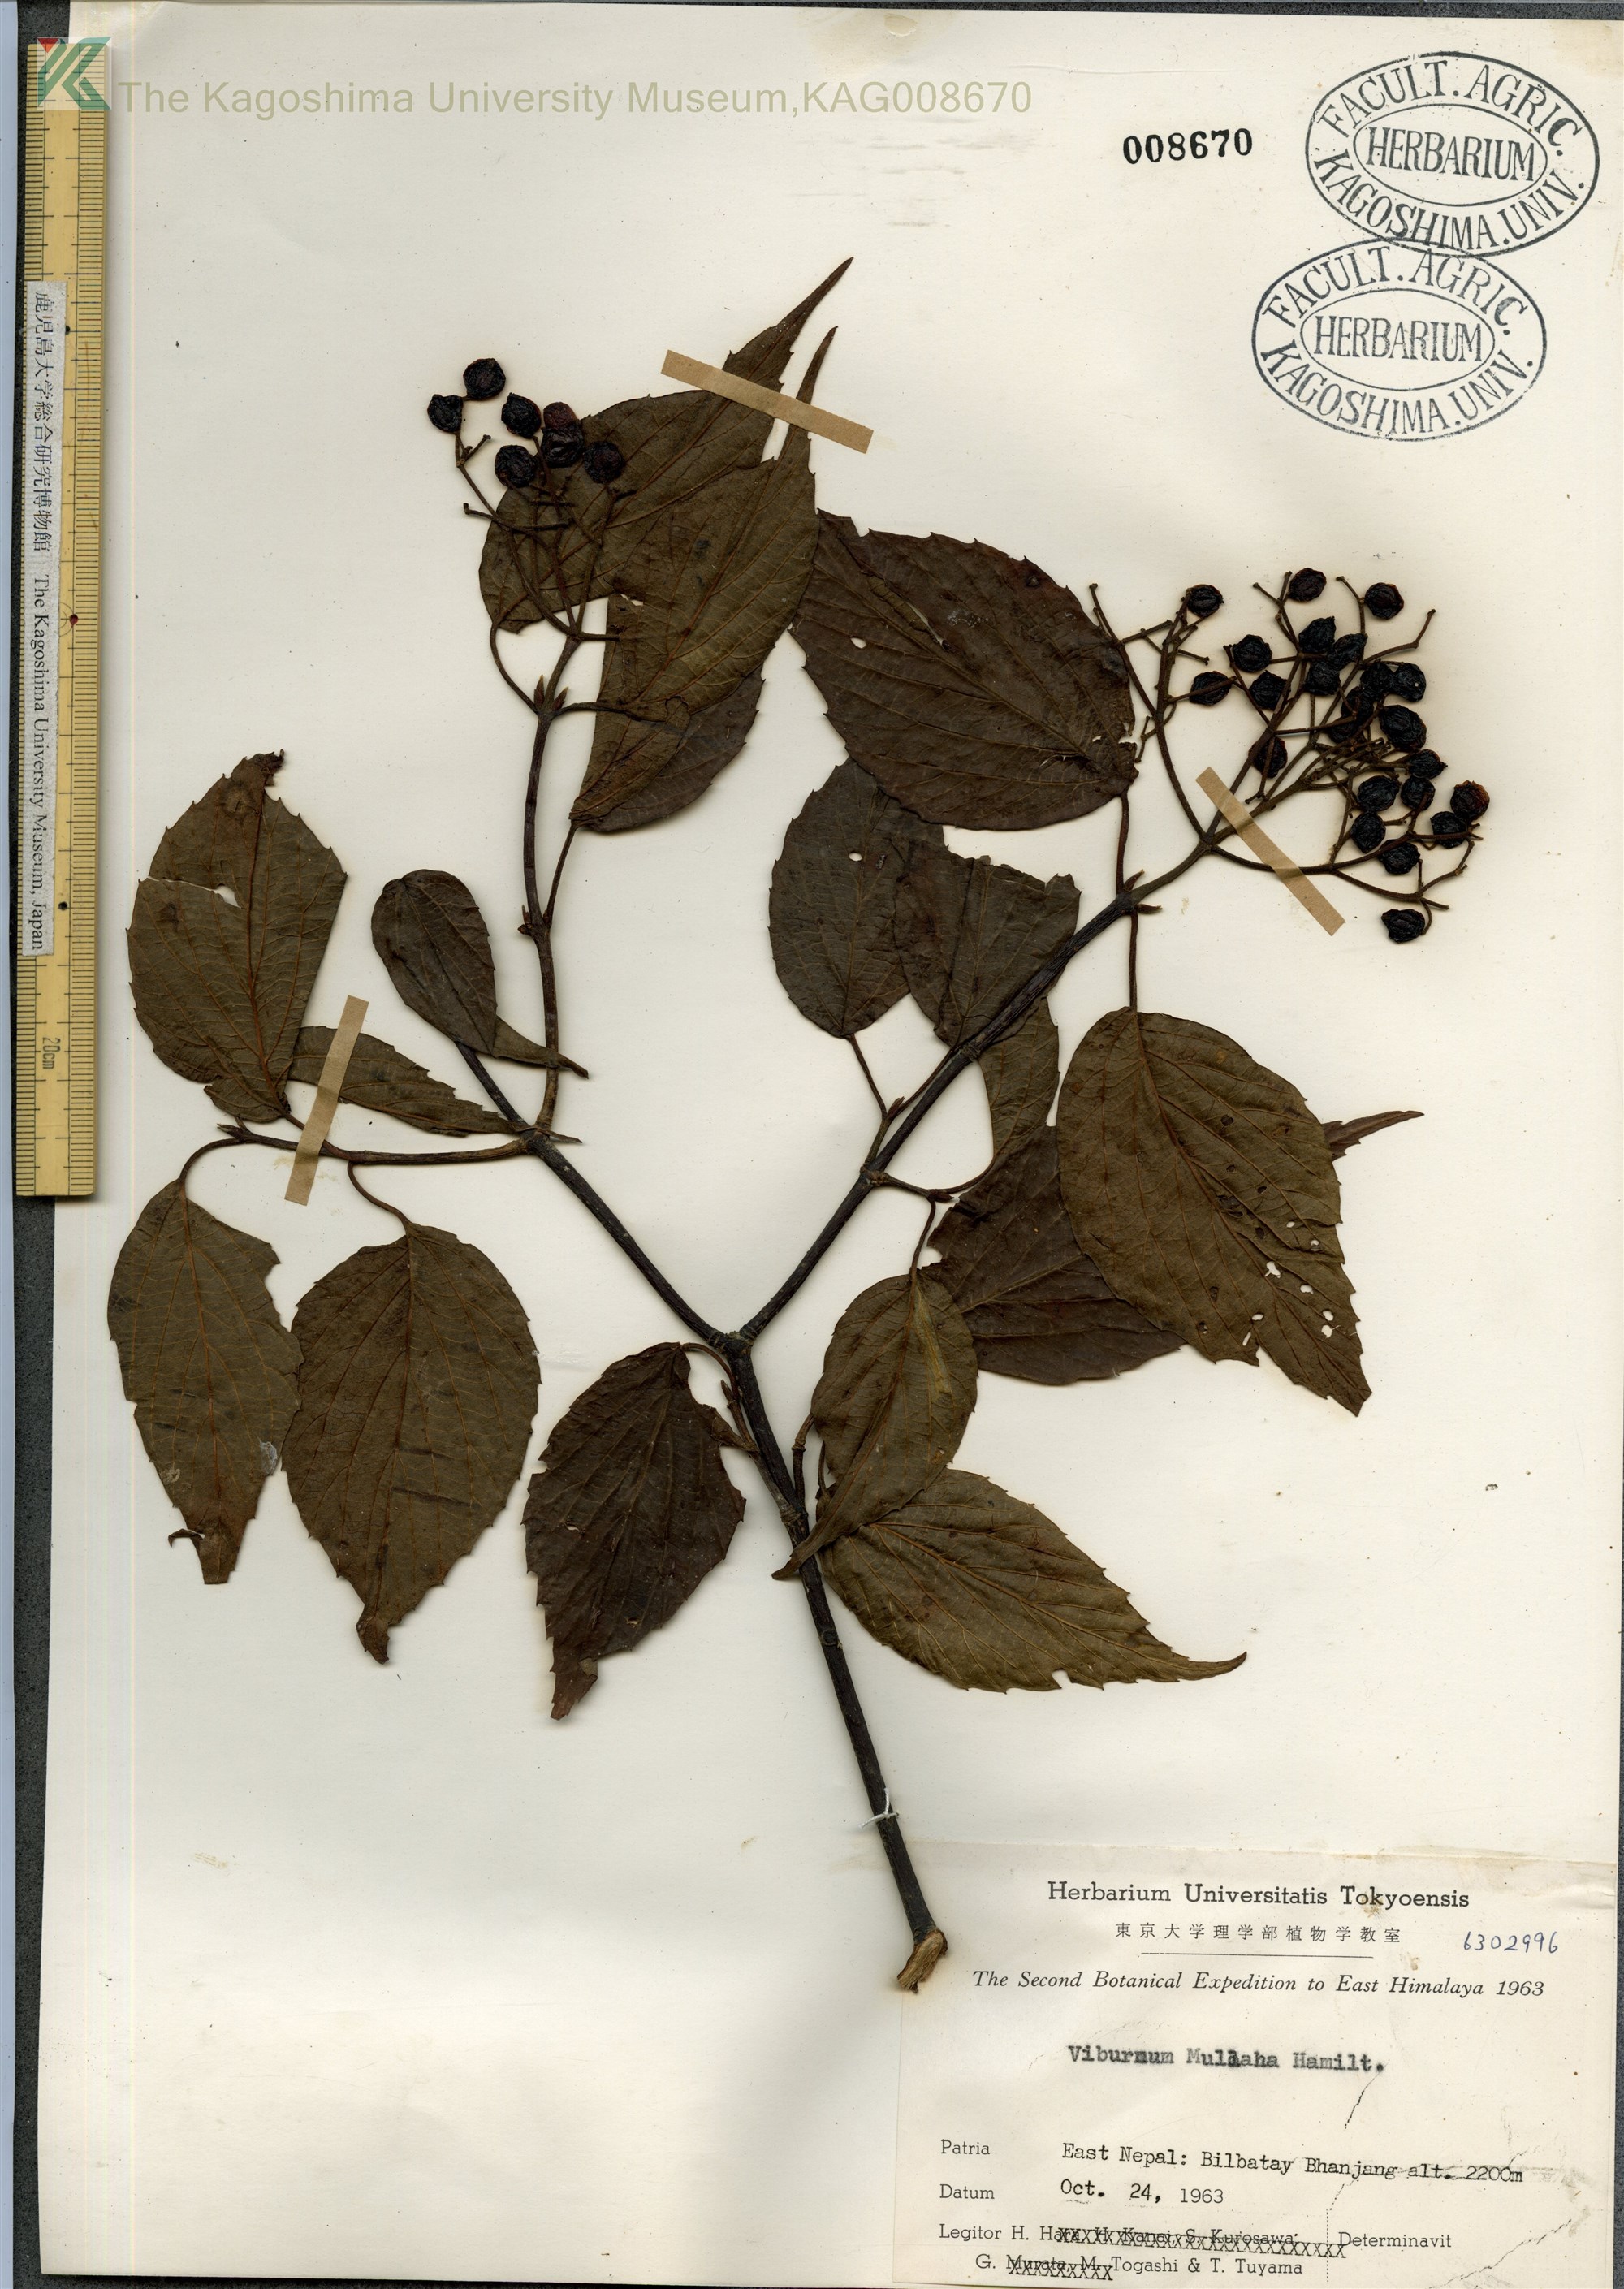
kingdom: Plantae
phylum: Tracheophyta
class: Magnoliopsida
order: Dipsacales
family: Viburnaceae
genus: Viburnum
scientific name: Viburnum mullaha
